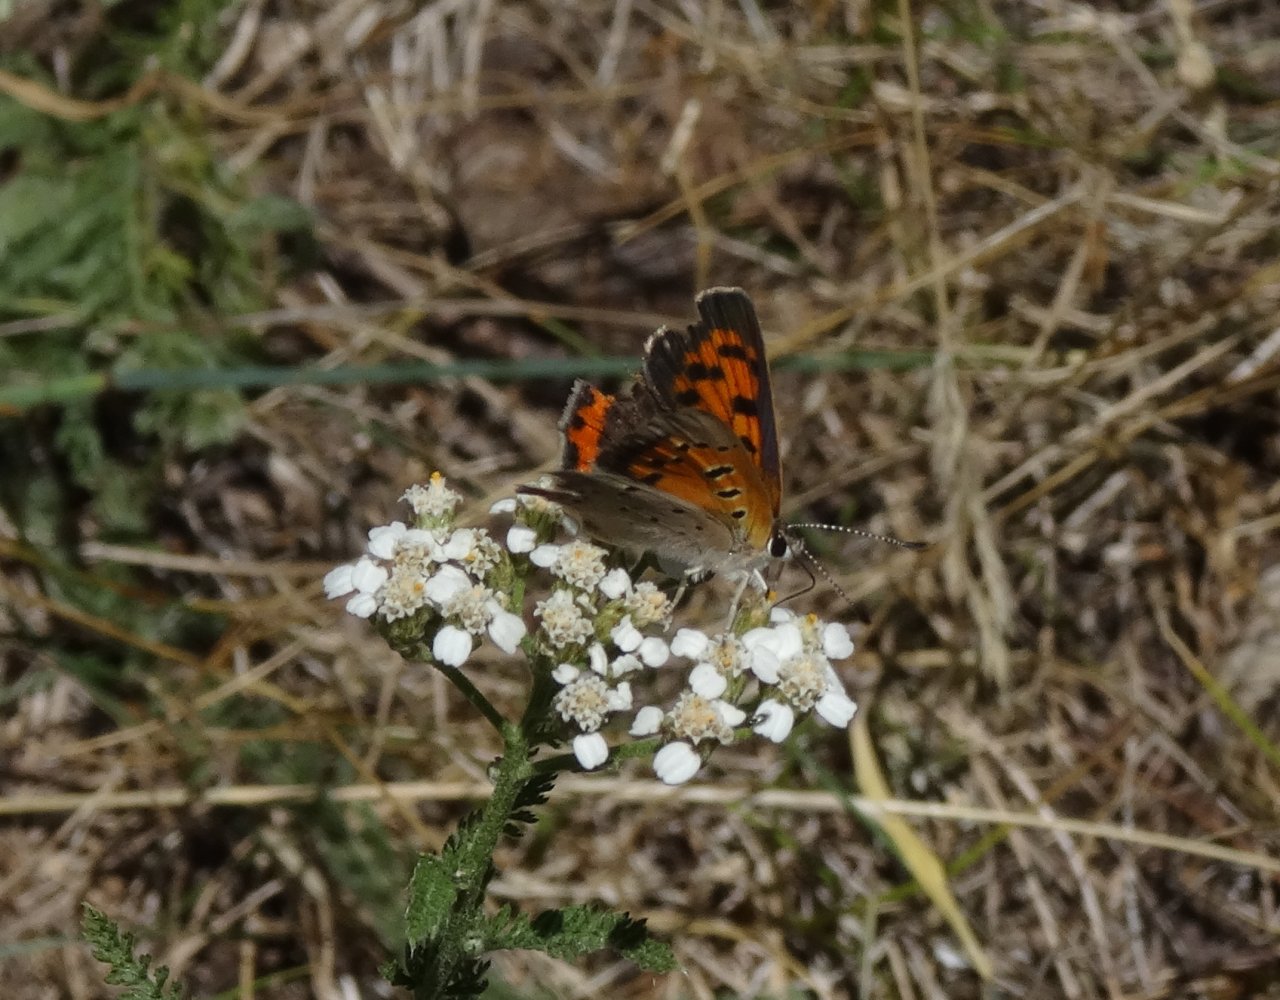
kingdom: Animalia
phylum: Arthropoda
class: Insecta
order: Lepidoptera
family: Lycaenidae
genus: Lycaena
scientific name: Lycaena phlaeas
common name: American Copper
